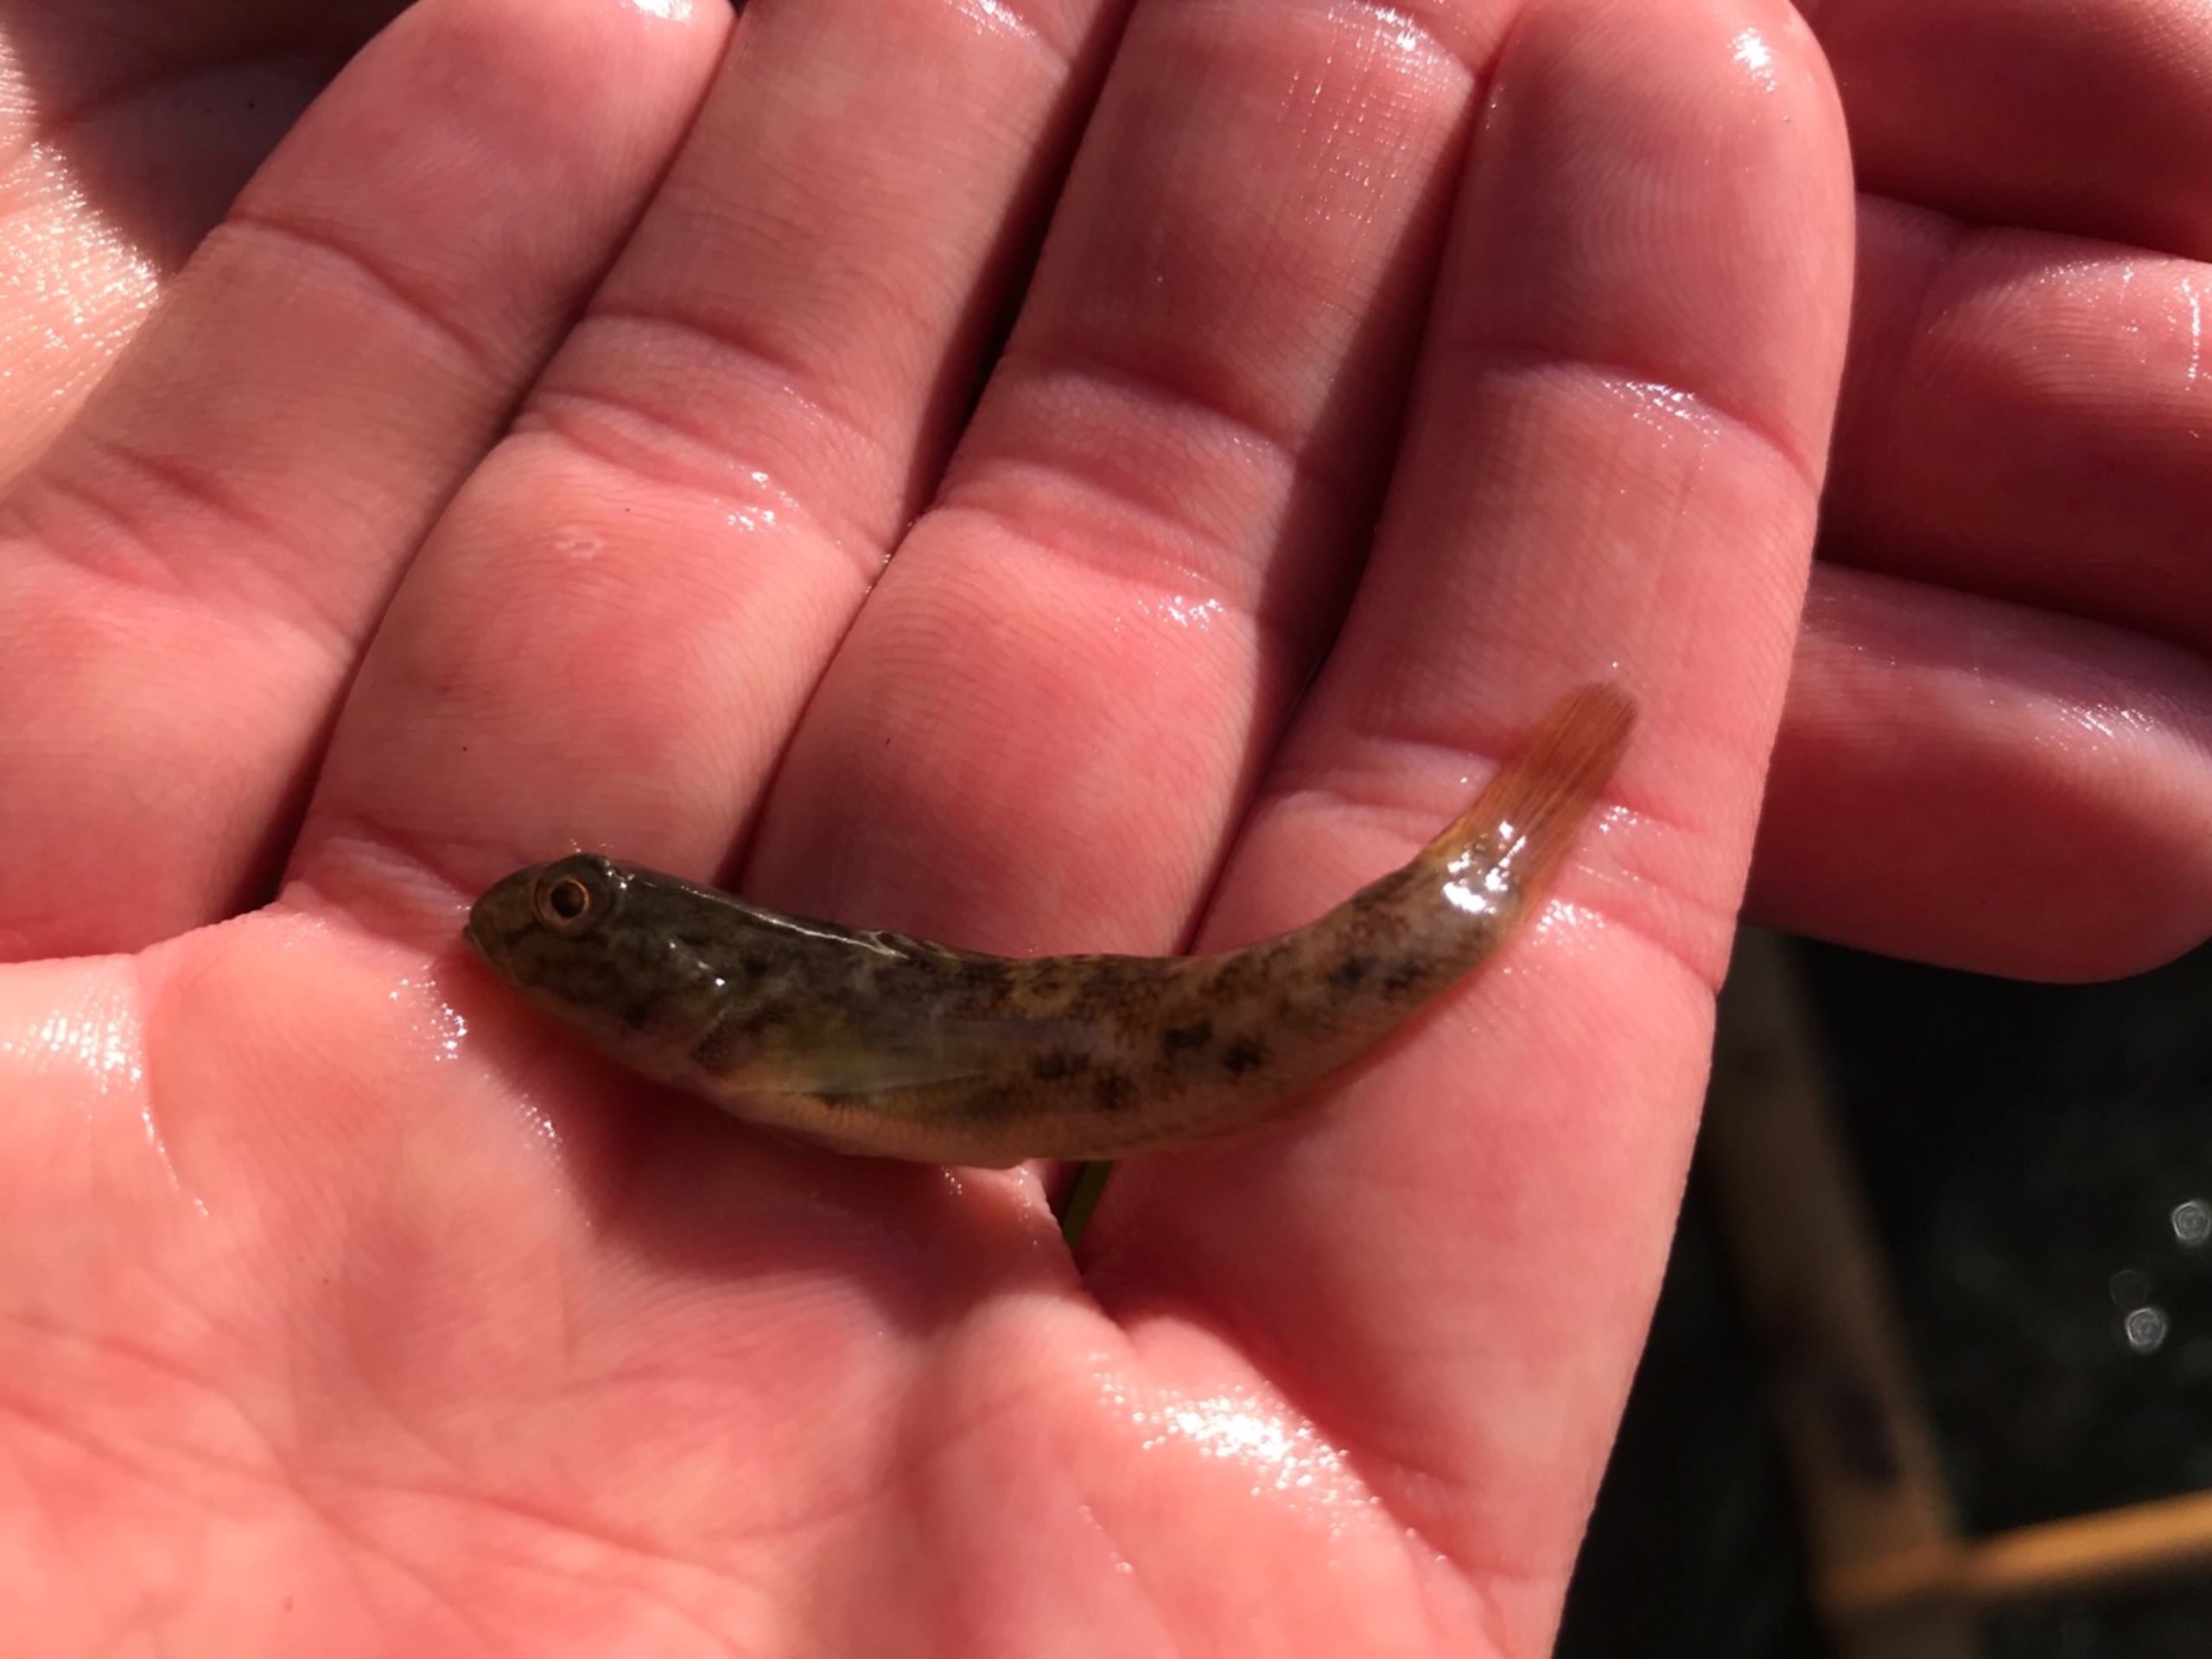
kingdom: Animalia
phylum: Chordata
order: Perciformes
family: Gobiidae
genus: Neogobius
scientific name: Neogobius melanostomus
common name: Sortmundet kutling
